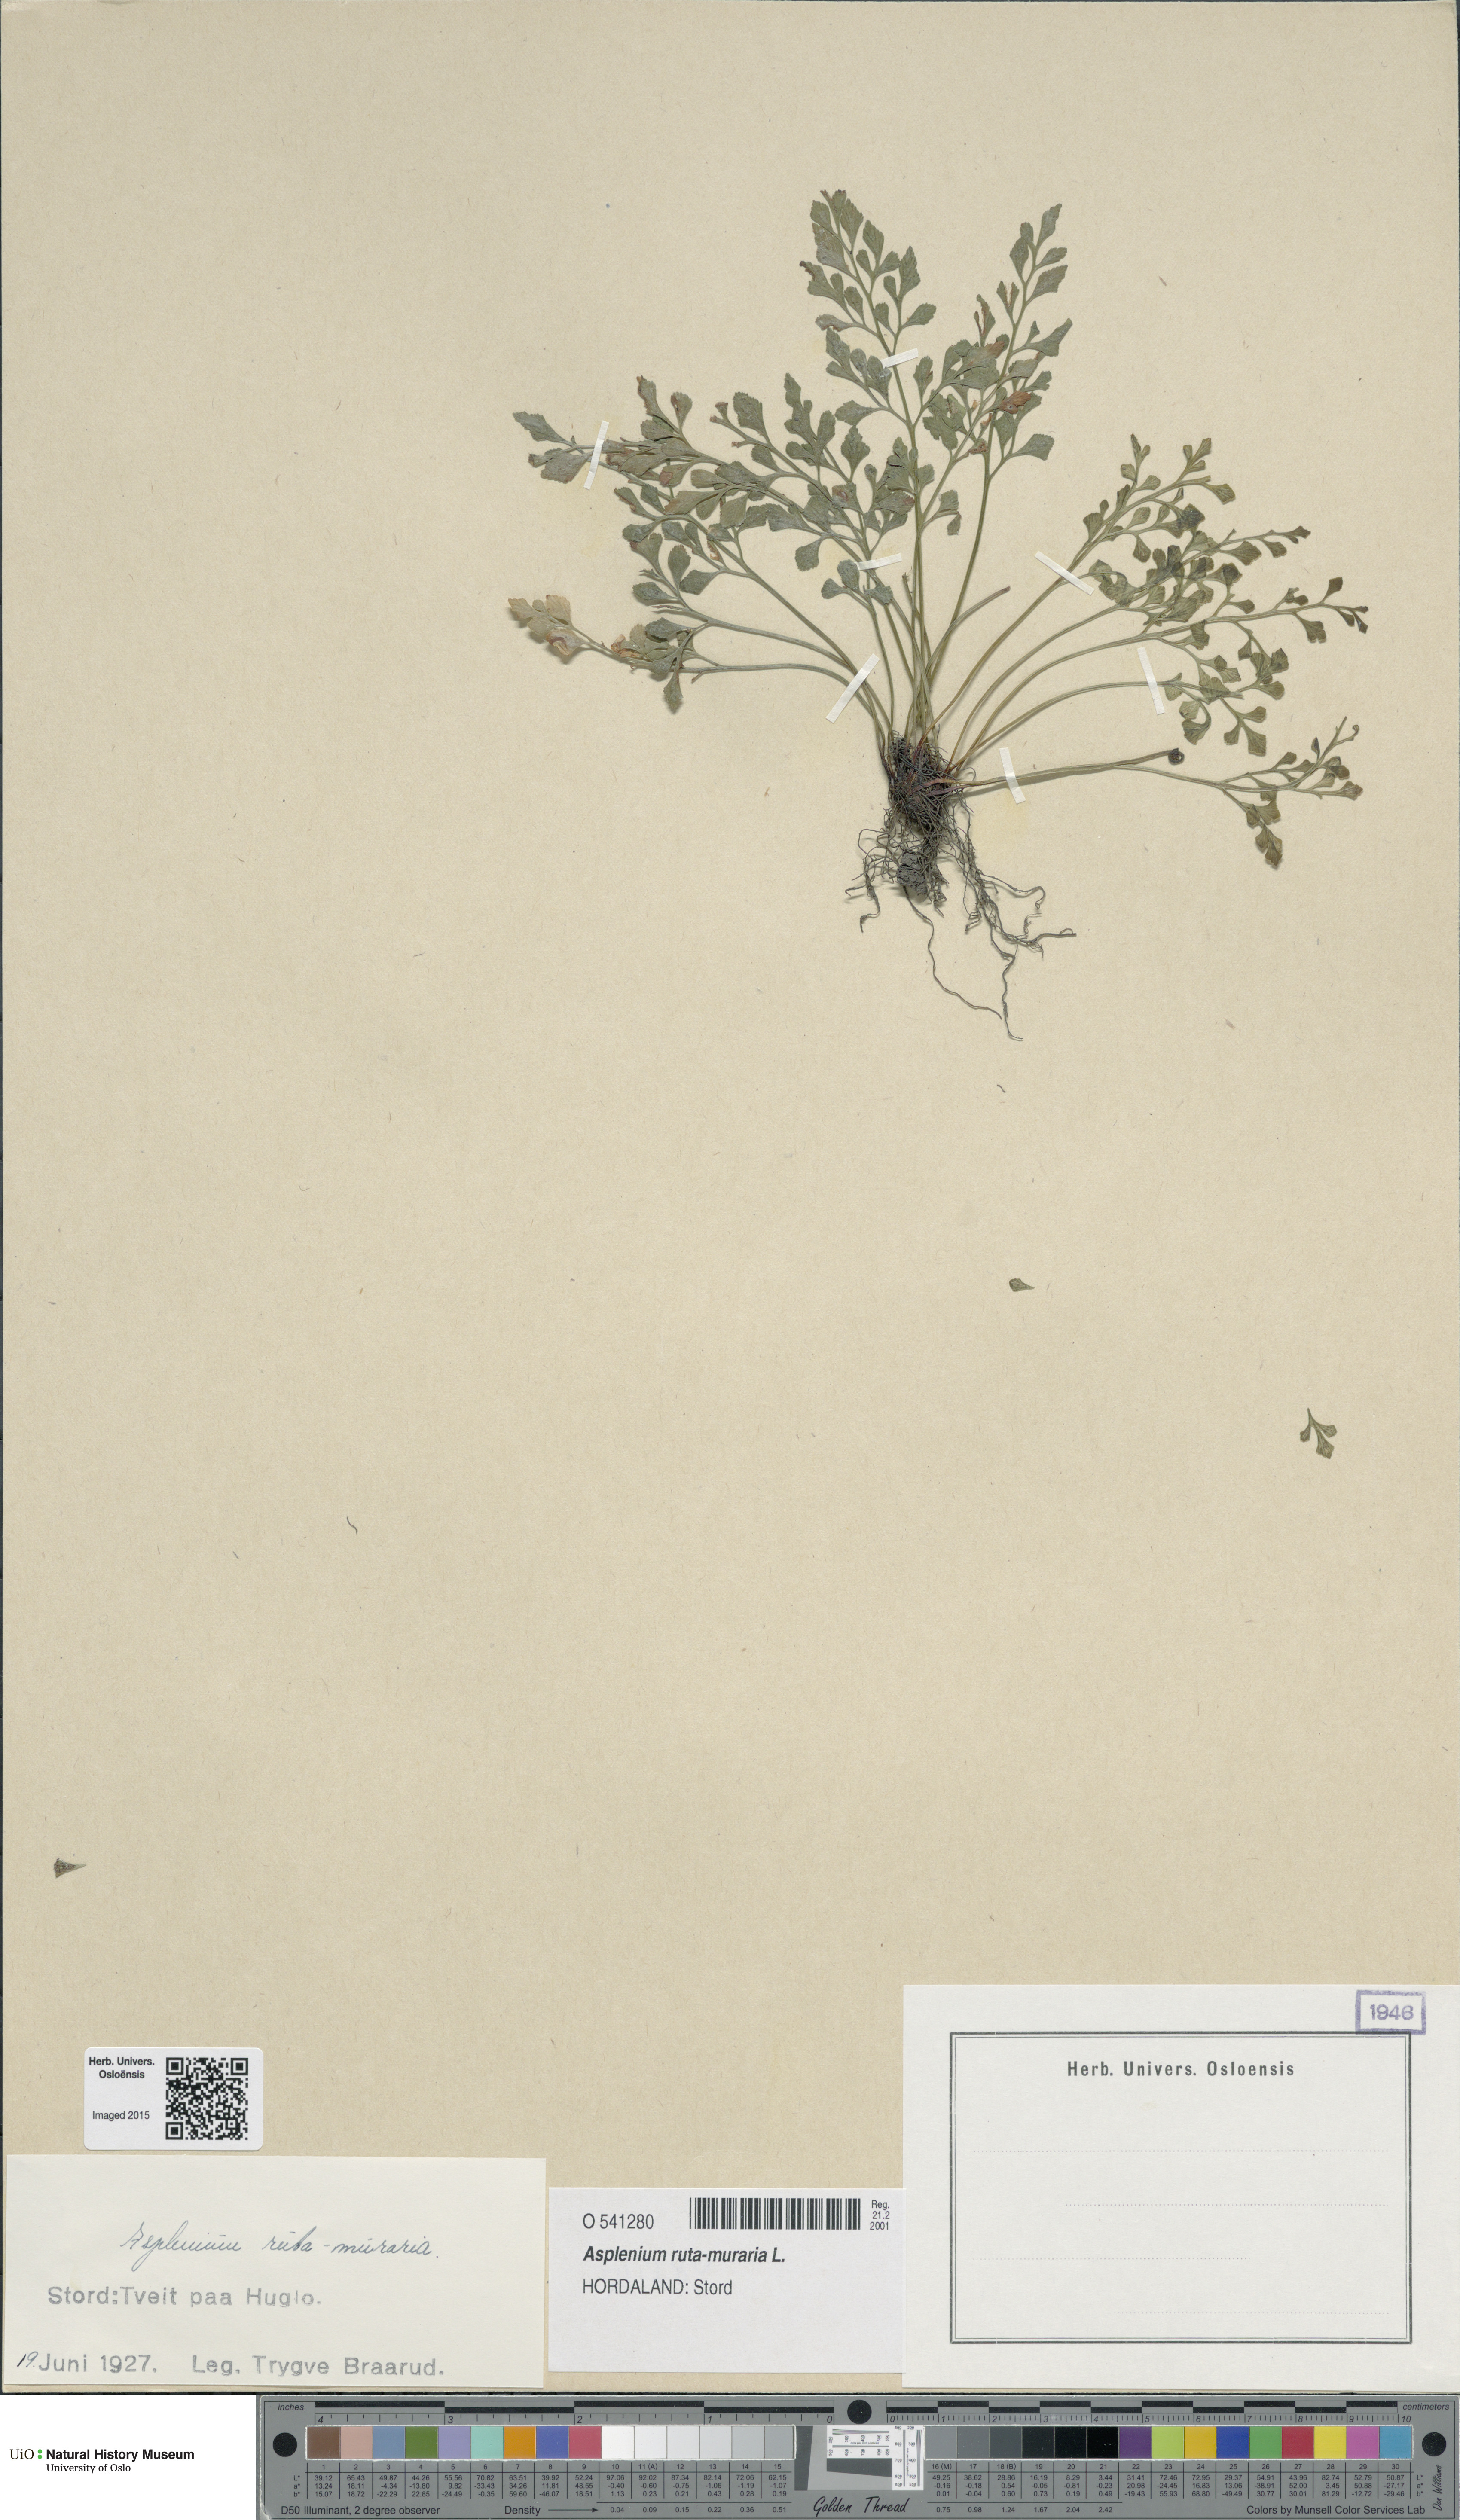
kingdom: Plantae
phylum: Tracheophyta
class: Polypodiopsida
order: Polypodiales
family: Aspleniaceae
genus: Asplenium
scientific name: Asplenium ruta-muraria
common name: Wall-rue
